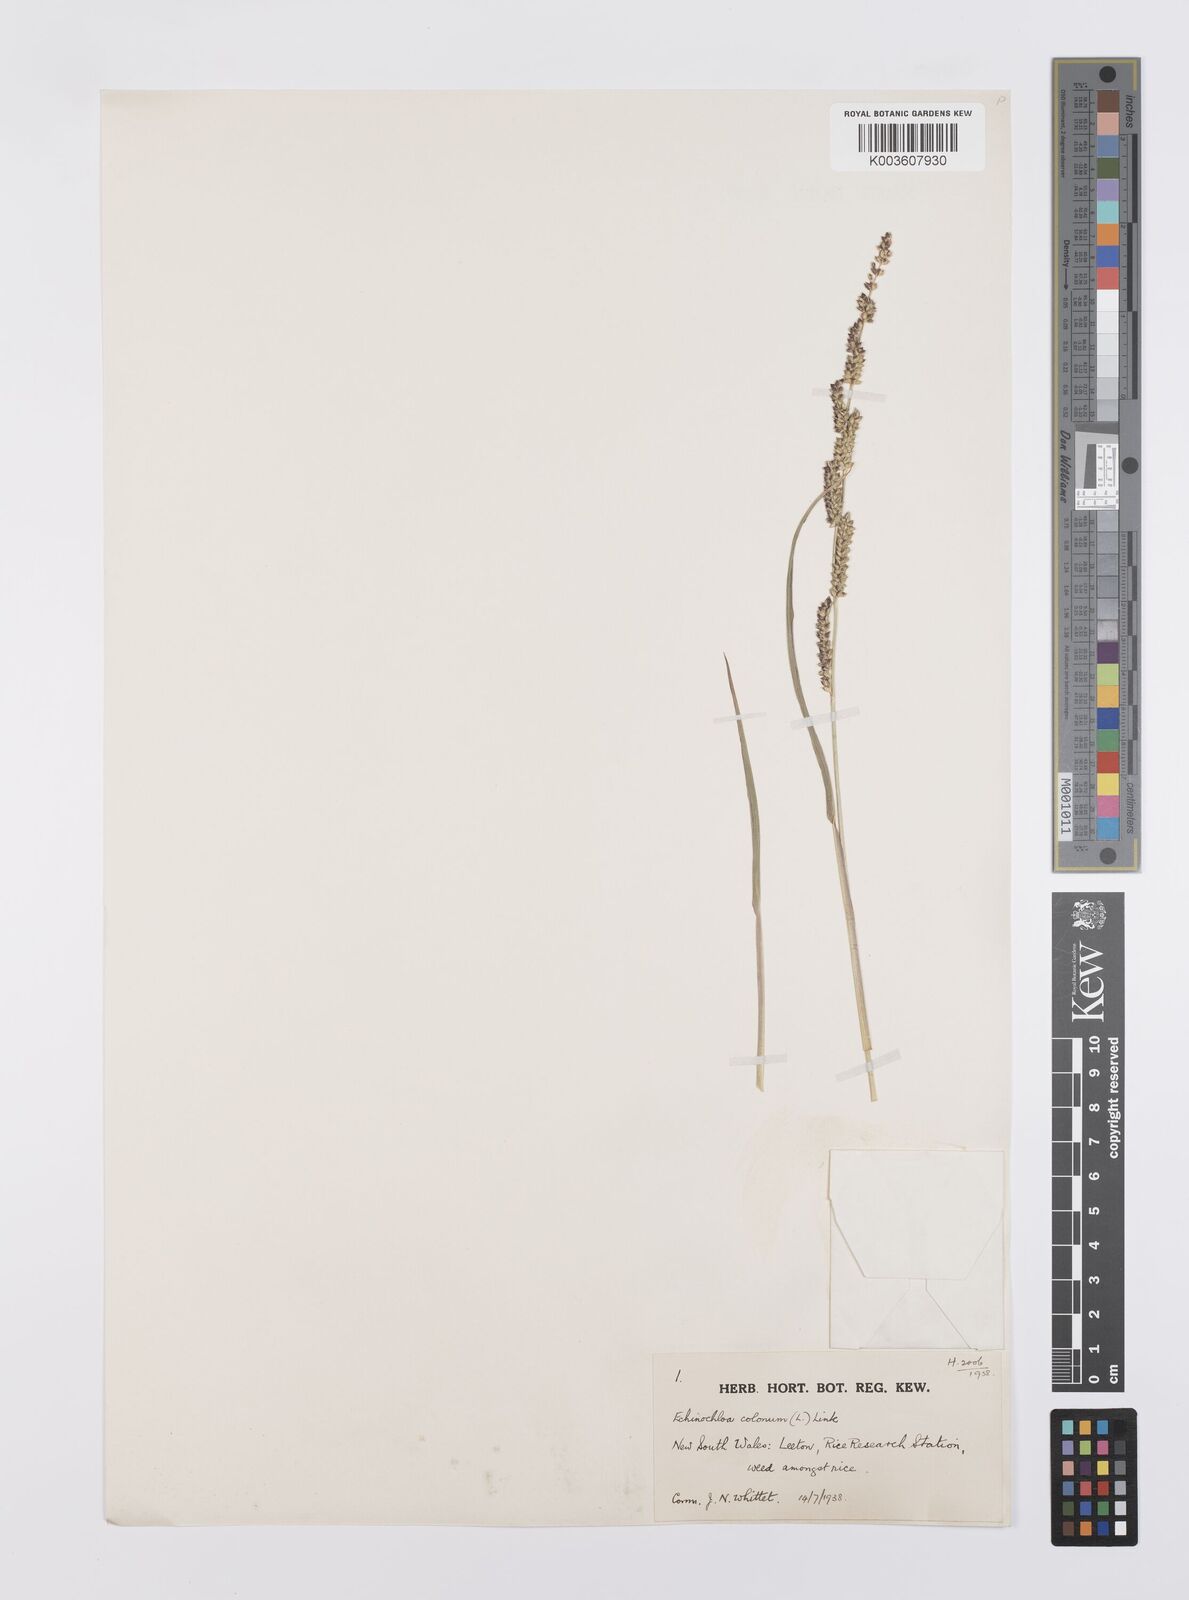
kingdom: Plantae
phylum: Tracheophyta
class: Liliopsida
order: Poales
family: Poaceae
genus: Echinochloa
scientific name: Echinochloa colonum
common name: Jungle rice
